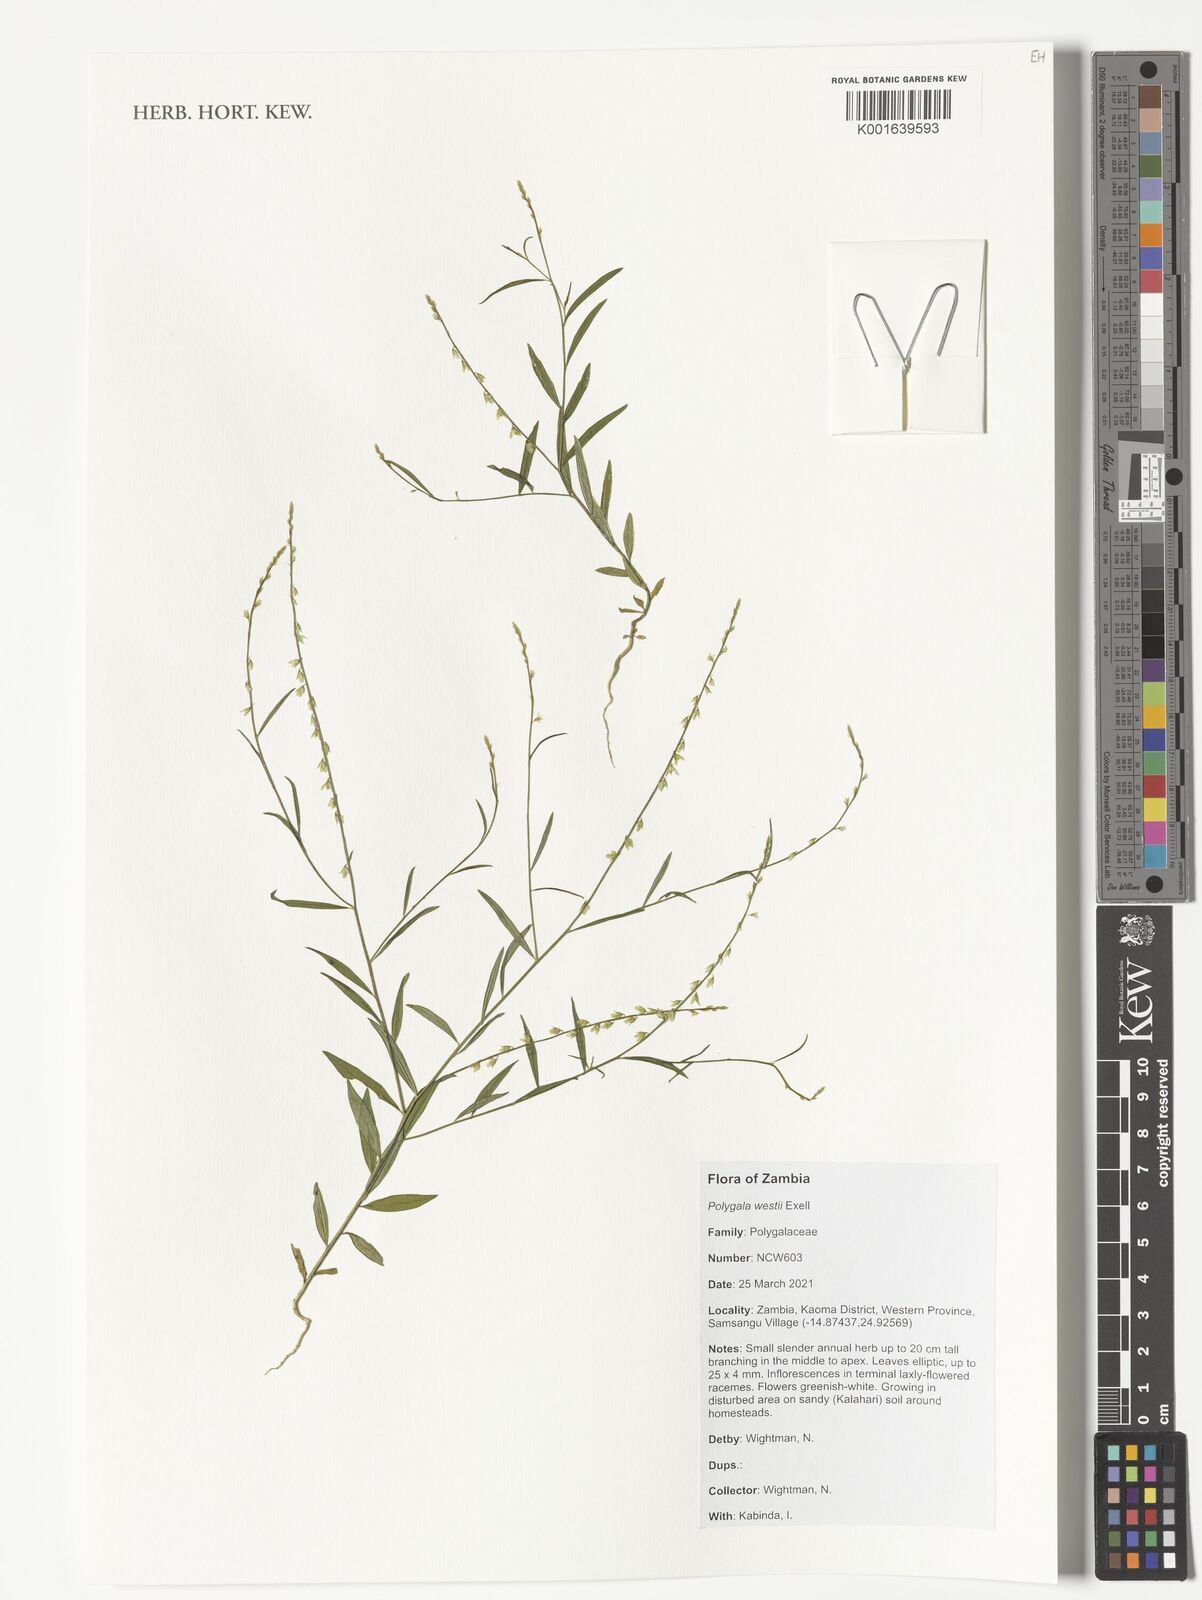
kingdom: Plantae
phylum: Tracheophyta
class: Magnoliopsida
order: Fabales
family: Polygalaceae
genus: Polygala
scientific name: Polygala westii
